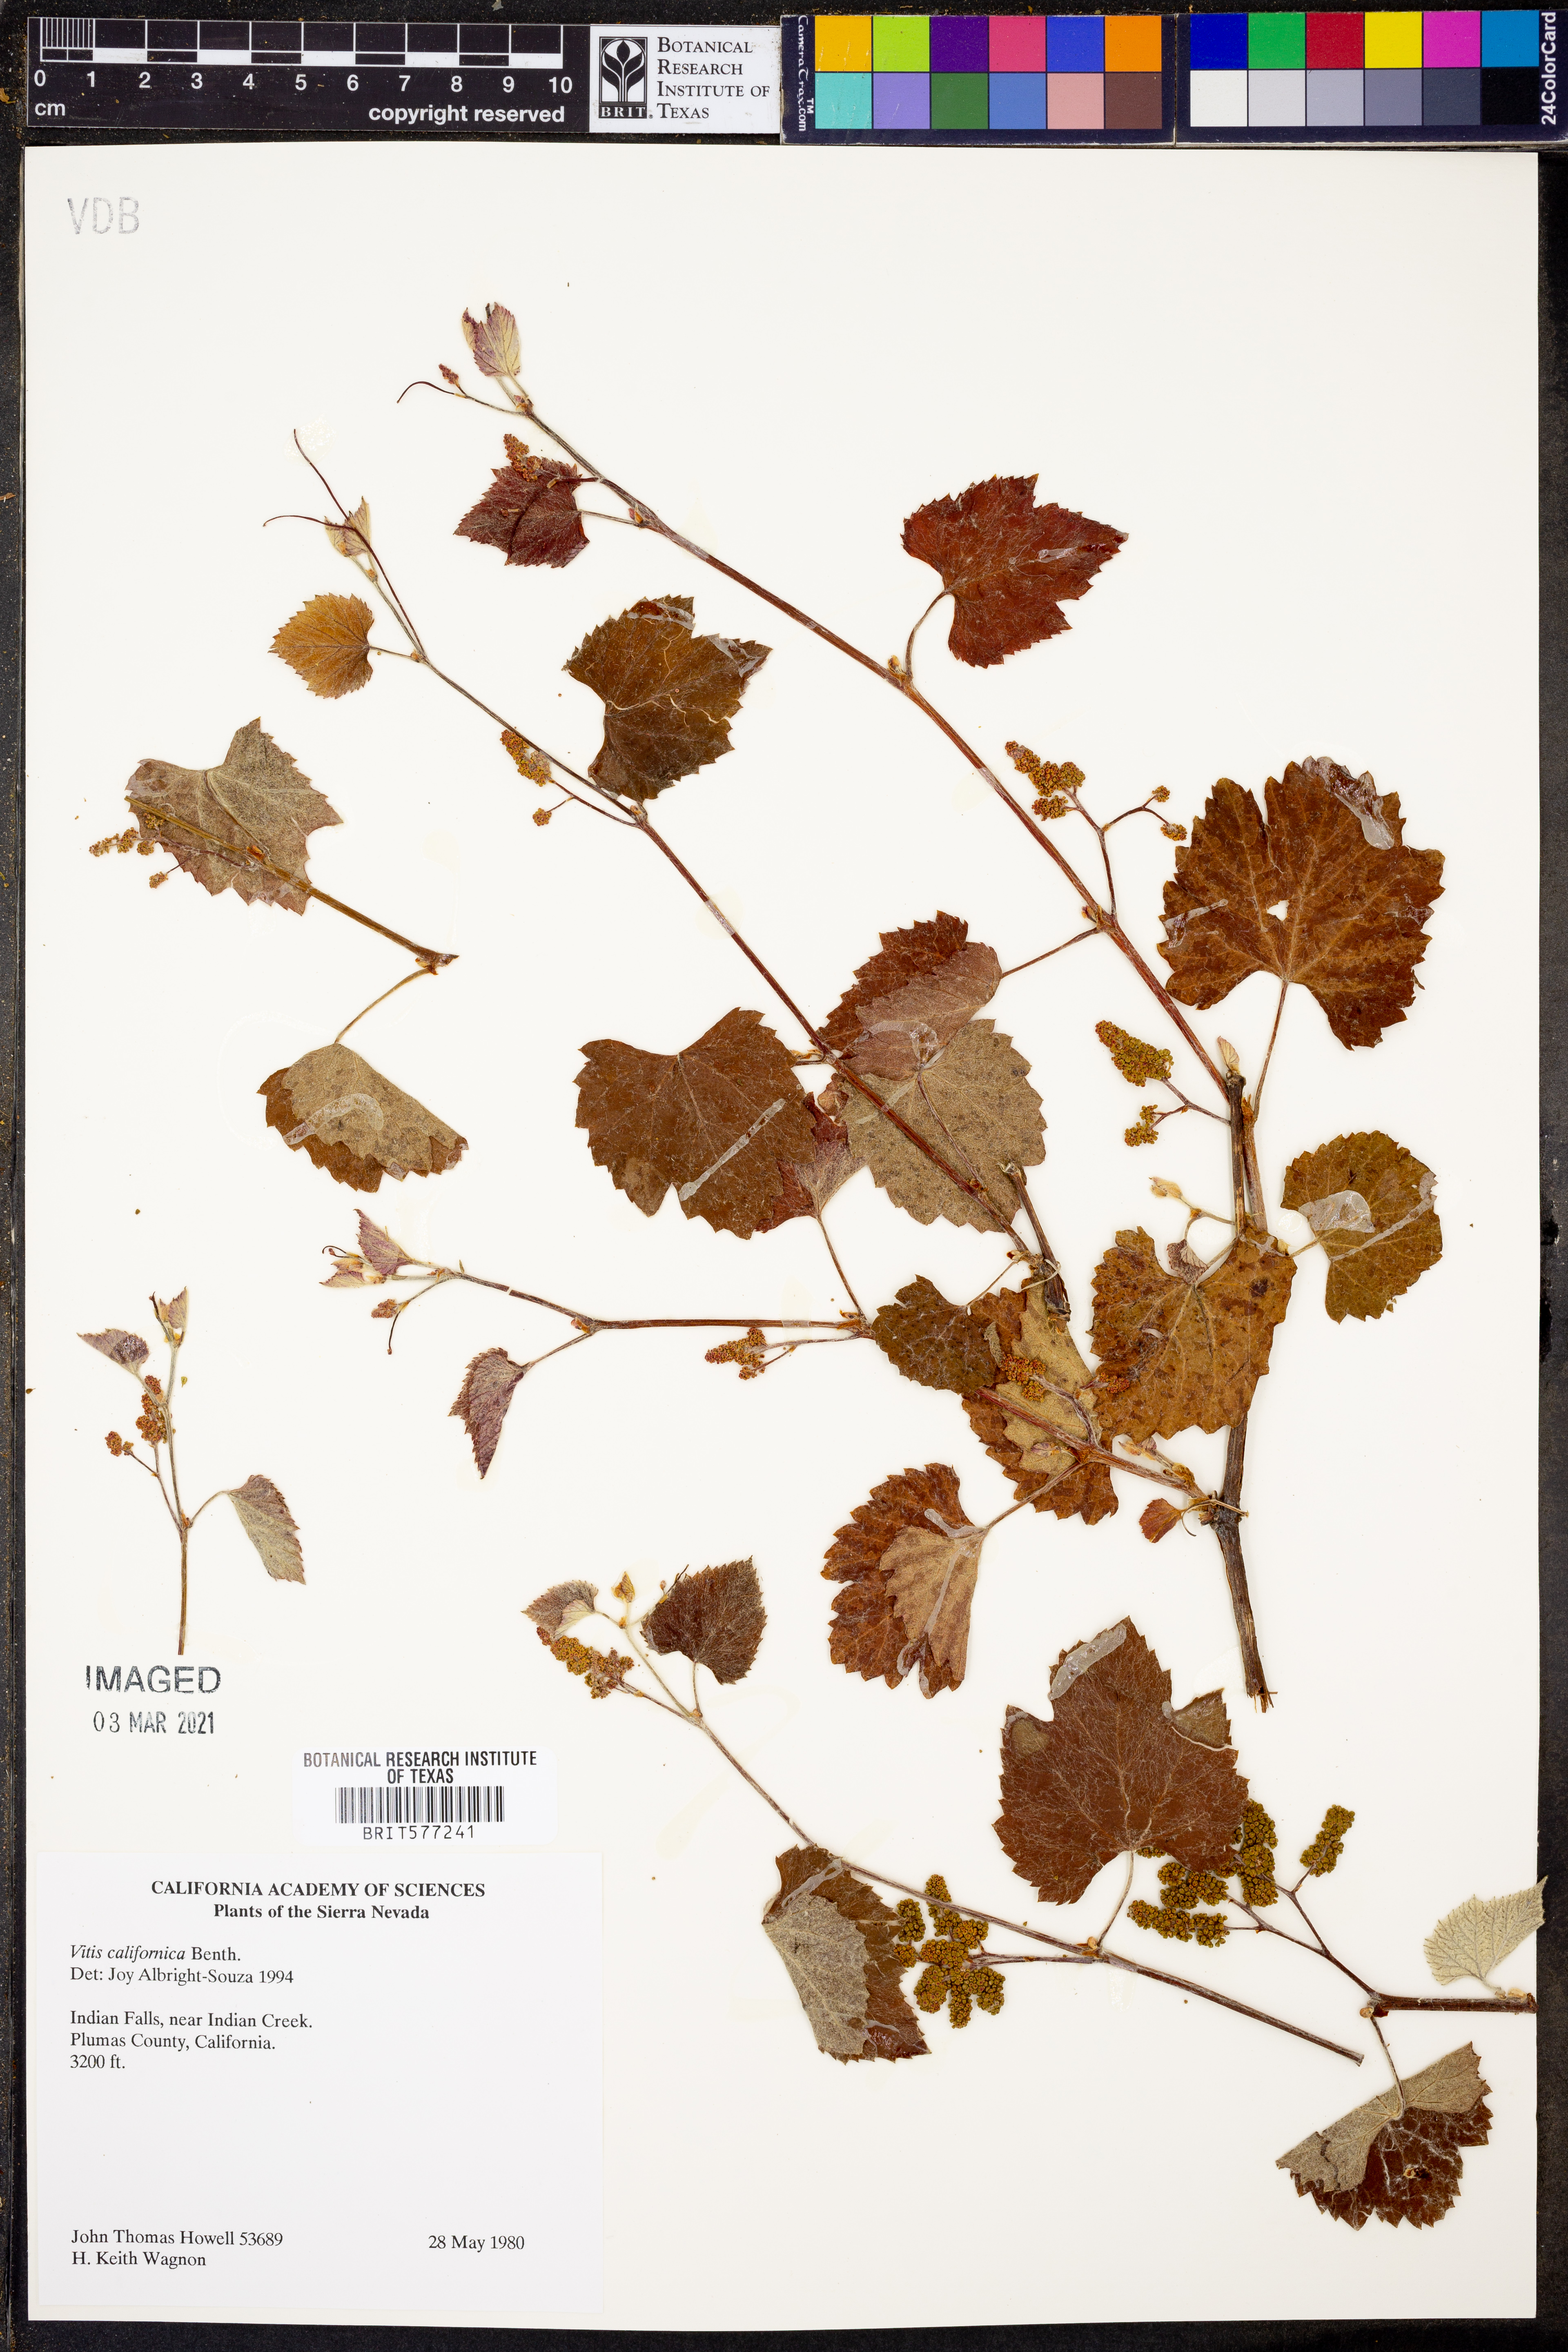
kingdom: Plantae
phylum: Tracheophyta
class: Magnoliopsida
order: Vitales
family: Vitaceae
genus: Vitis
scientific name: Vitis californica
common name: California wild grape
